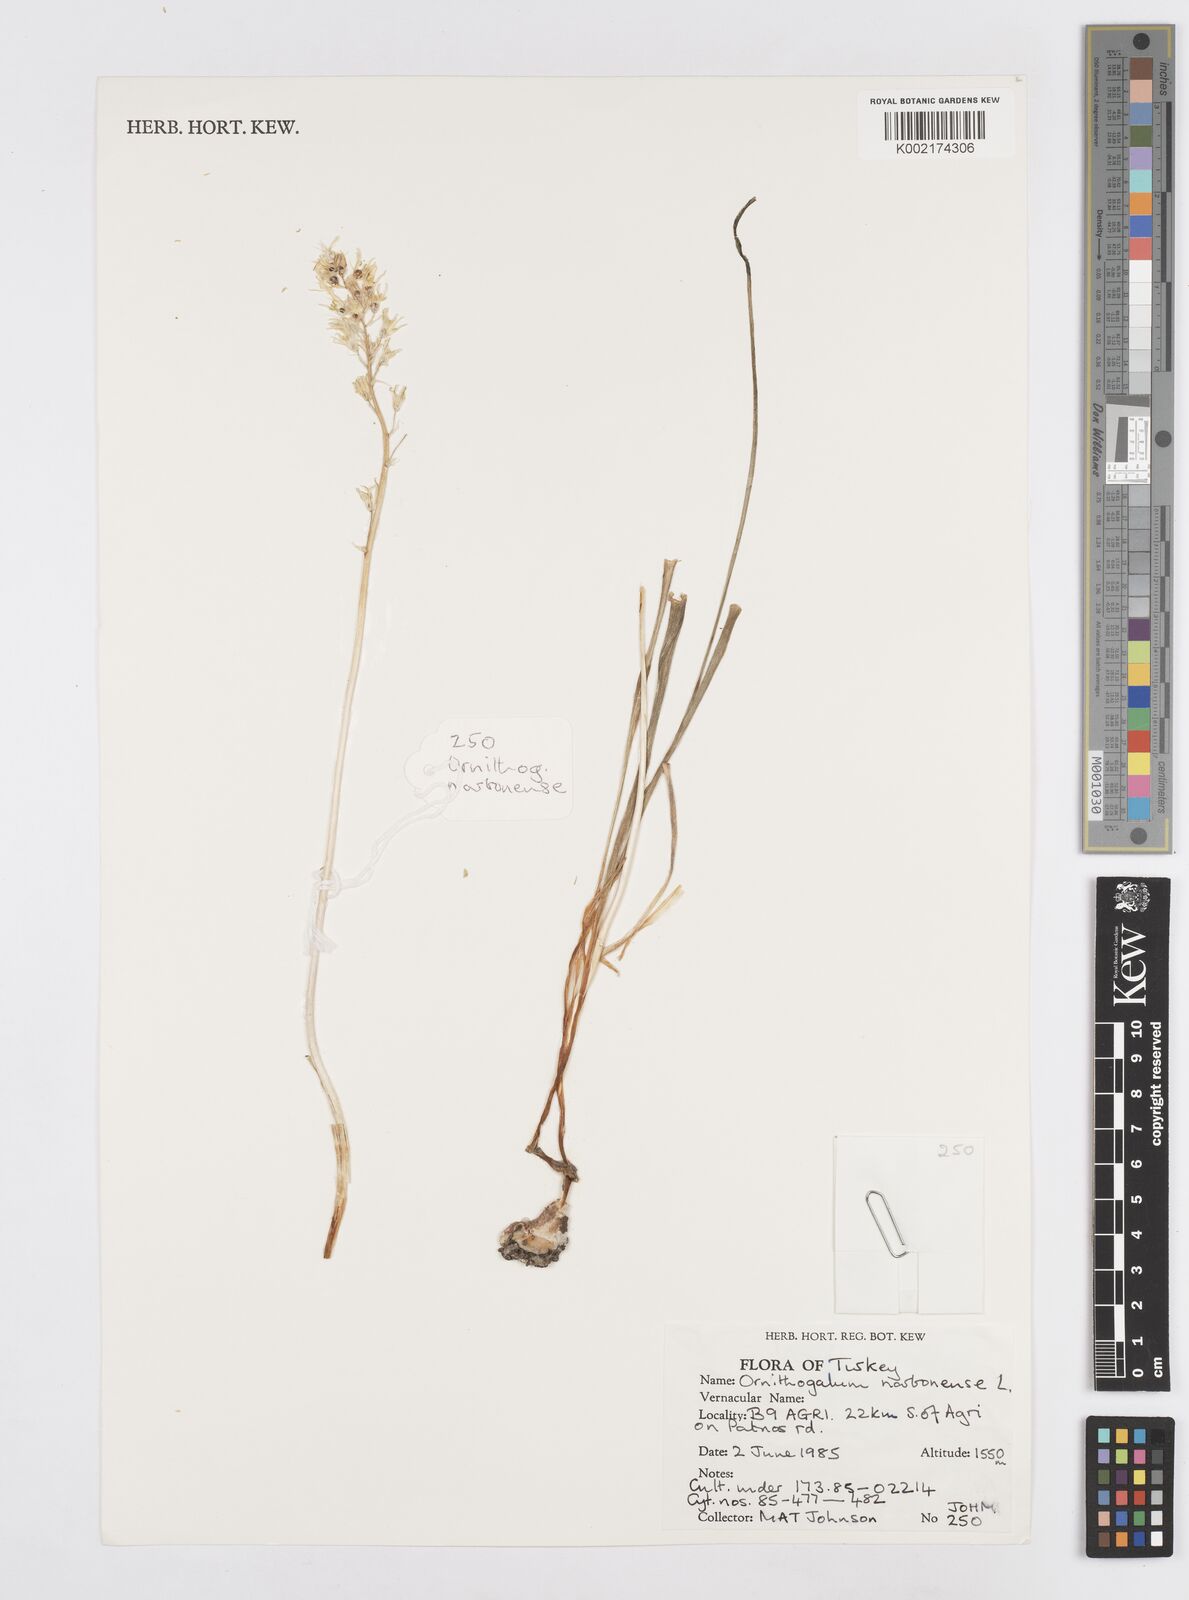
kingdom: Plantae
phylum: Tracheophyta
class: Liliopsida
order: Asparagales
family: Asparagaceae
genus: Ornithogalum
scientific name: Ornithogalum narbonense
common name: Bath-asparagus
